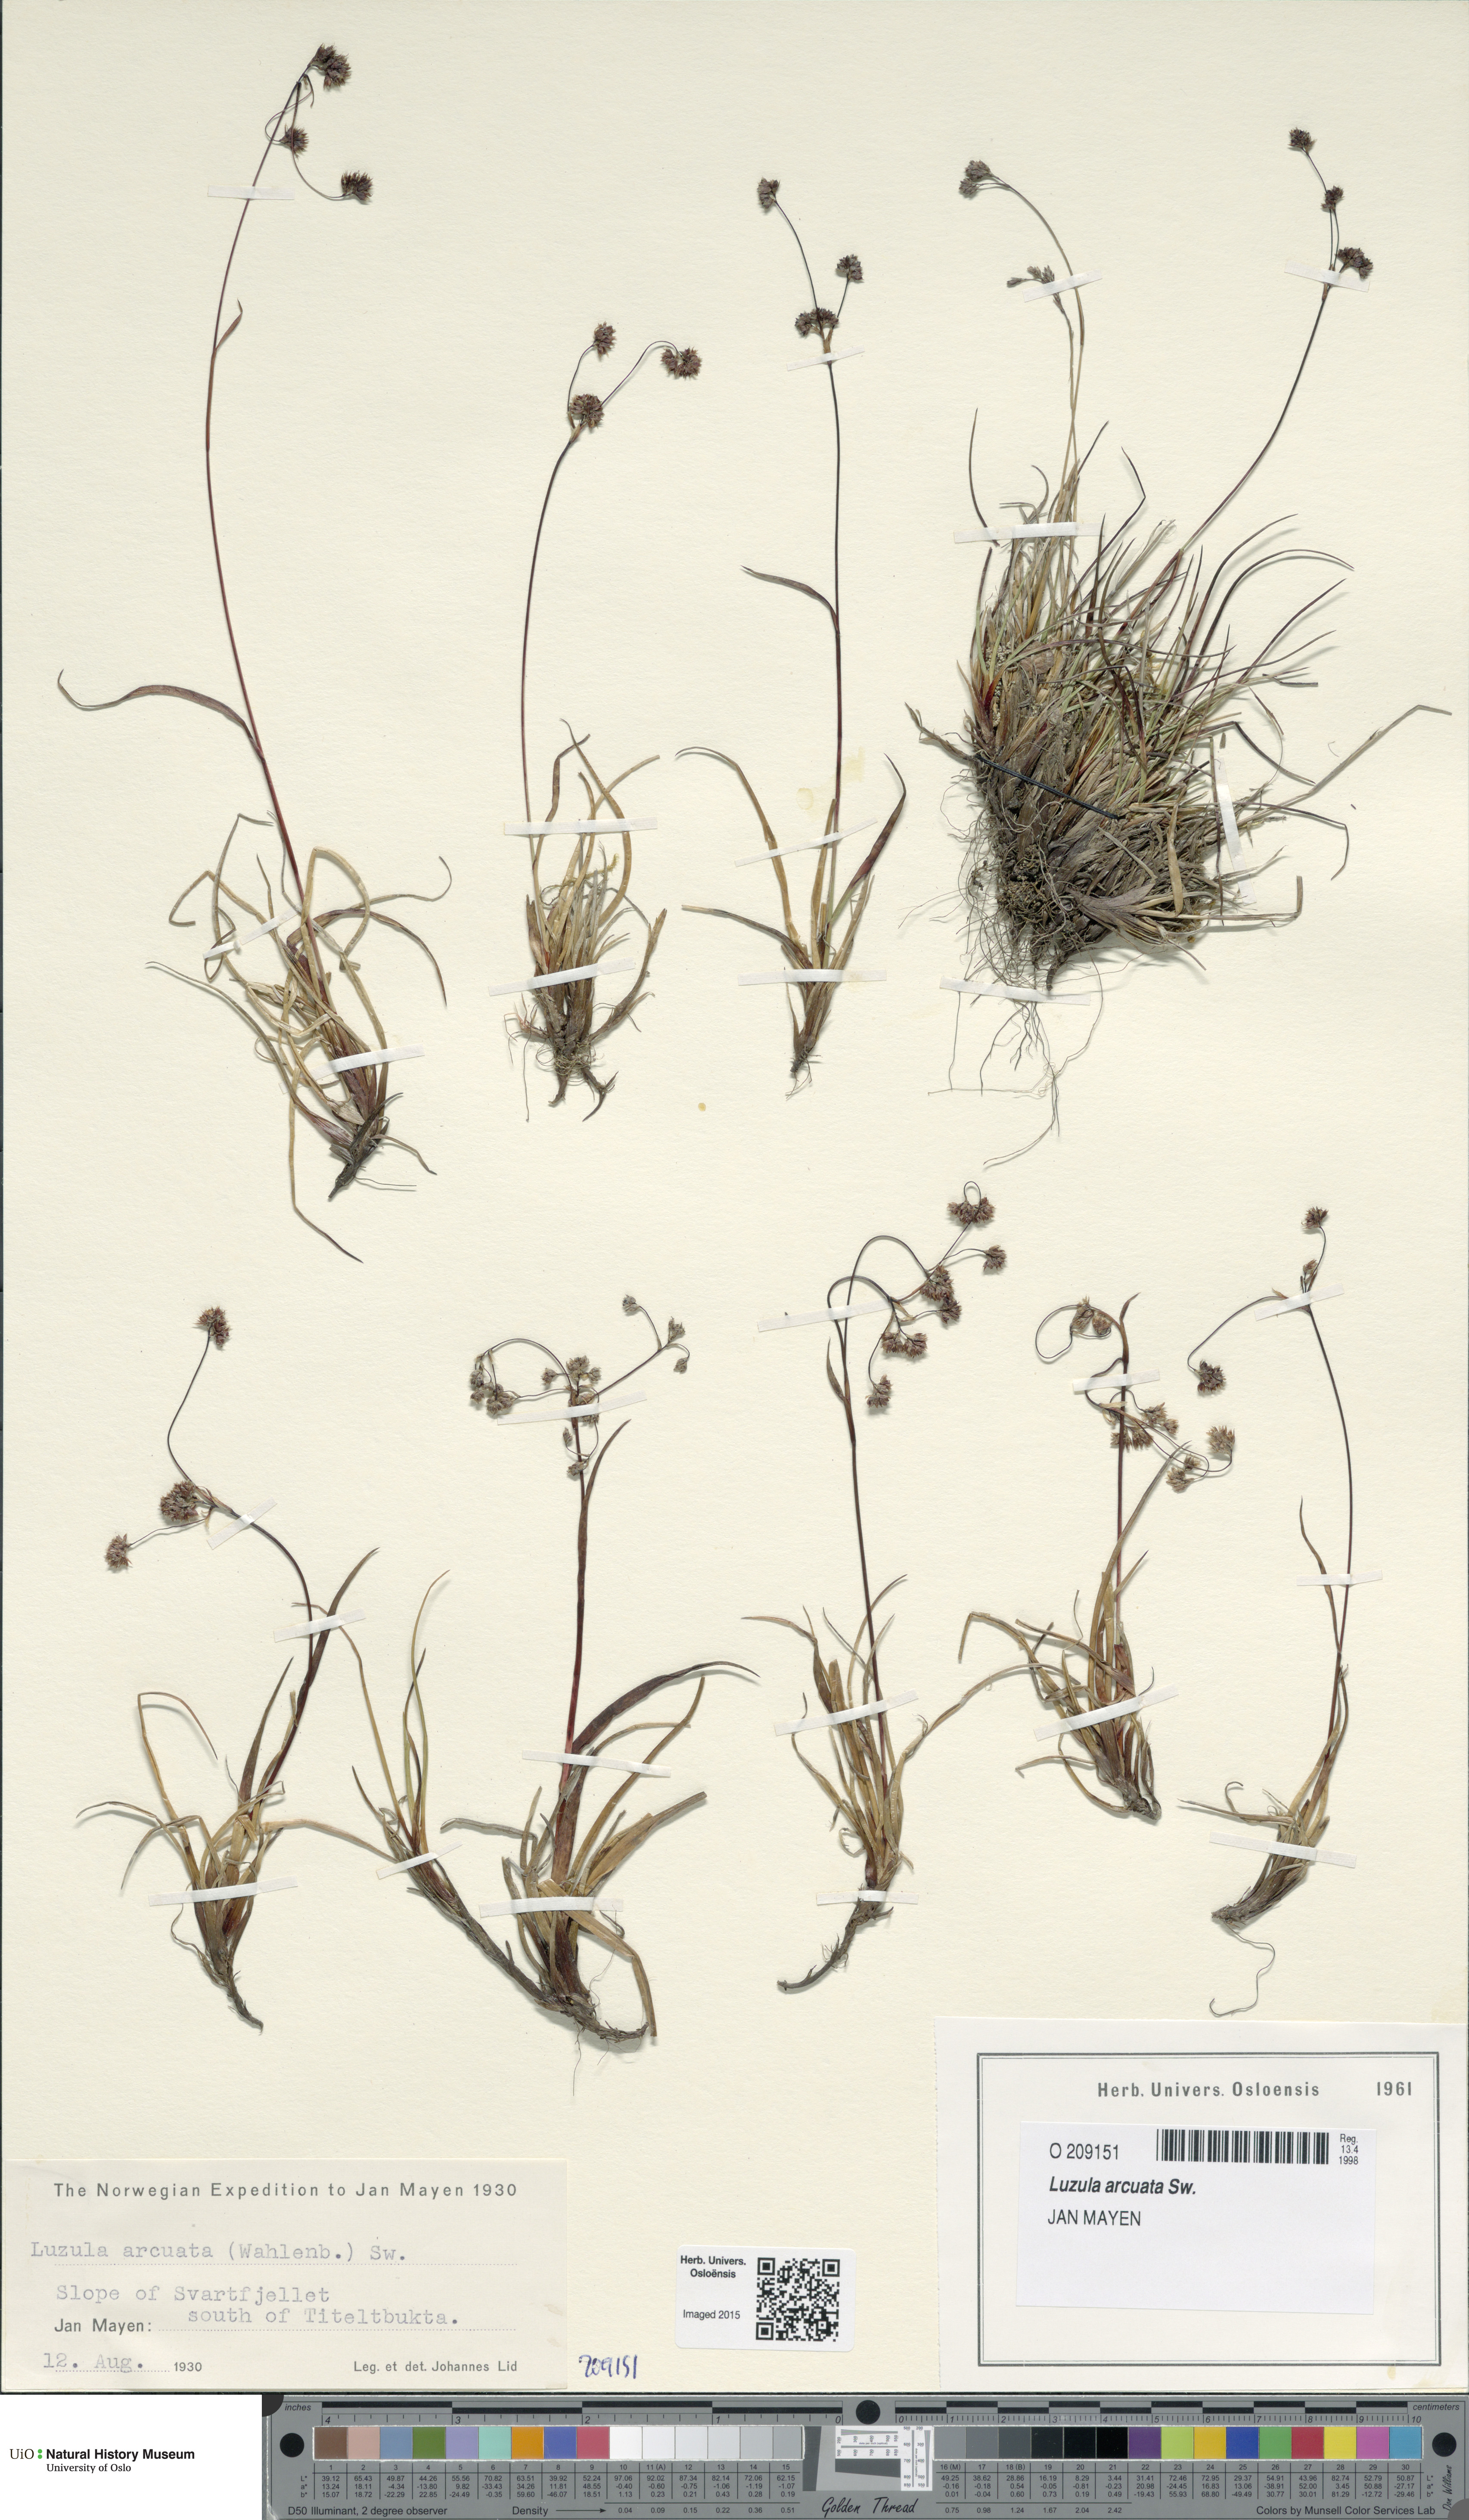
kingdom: Plantae
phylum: Tracheophyta
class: Liliopsida
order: Poales
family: Juncaceae
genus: Luzula
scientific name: Luzula arcuata
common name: Curved wood-rush
